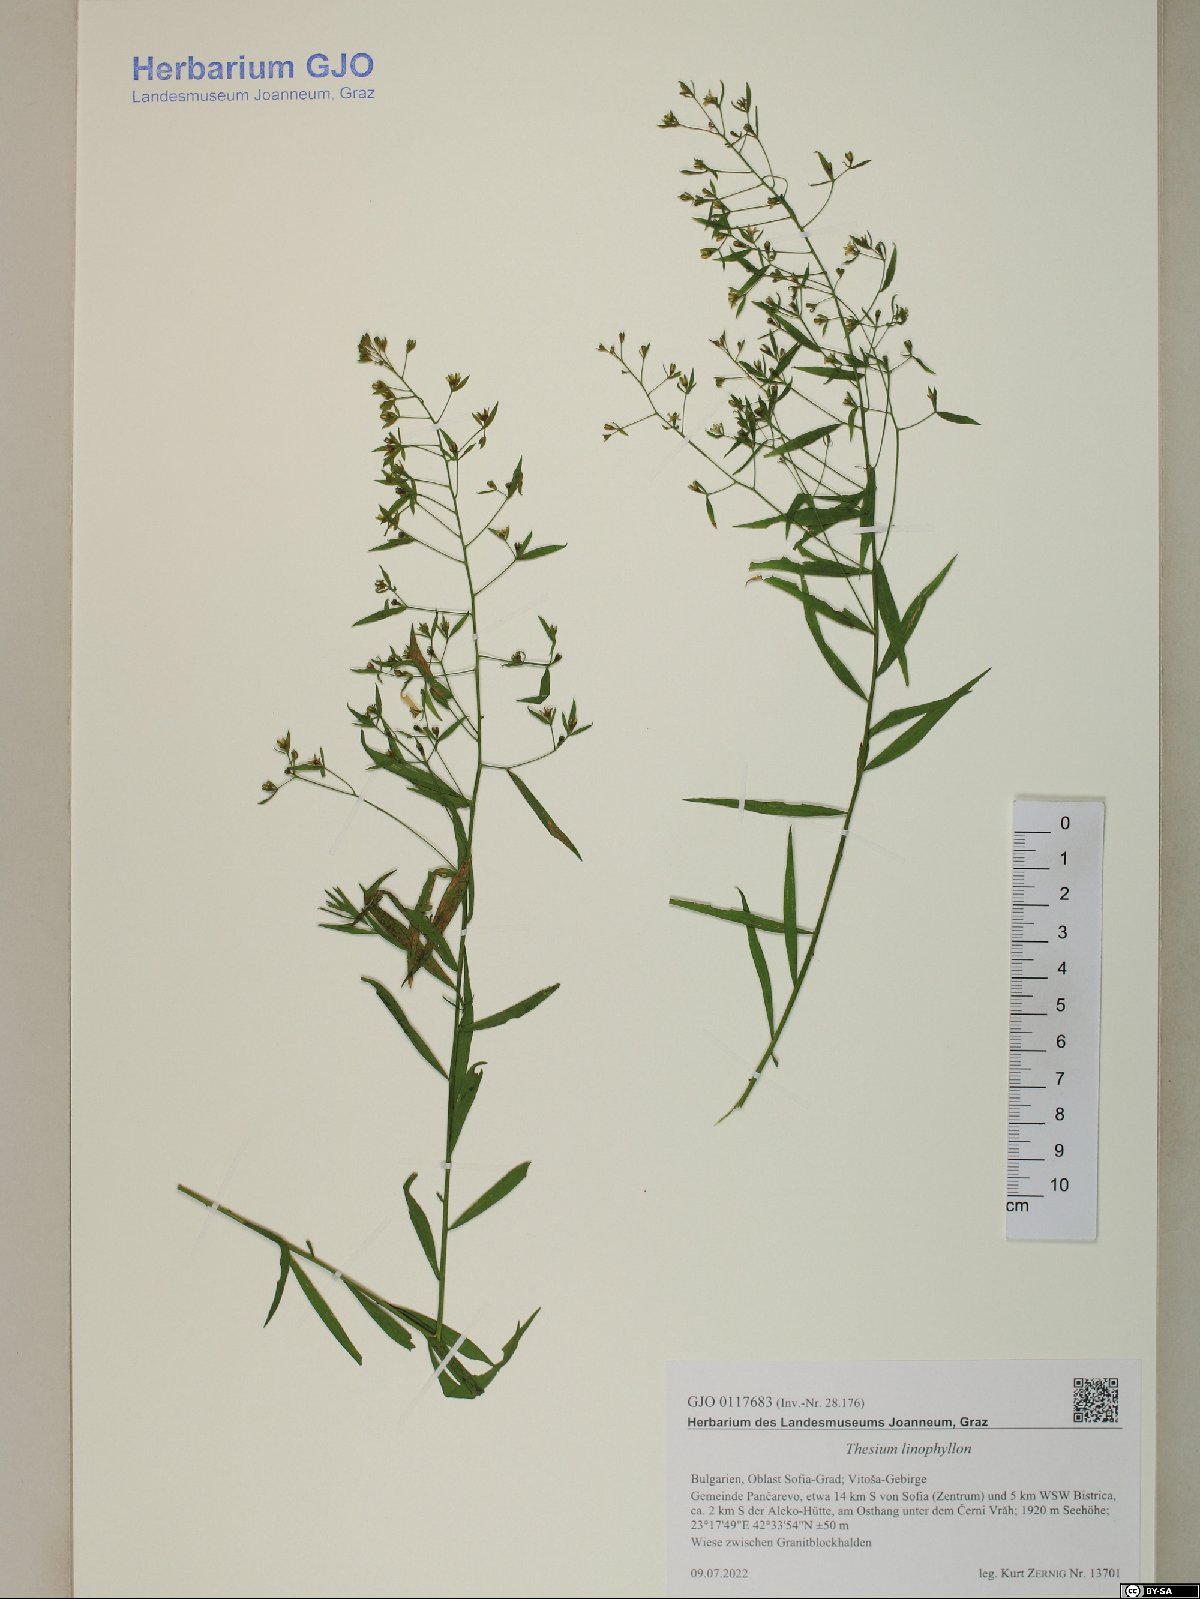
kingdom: Plantae
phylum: Tracheophyta
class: Magnoliopsida
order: Santalales
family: Thesiaceae
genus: Thesium
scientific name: Thesium linophyllon
